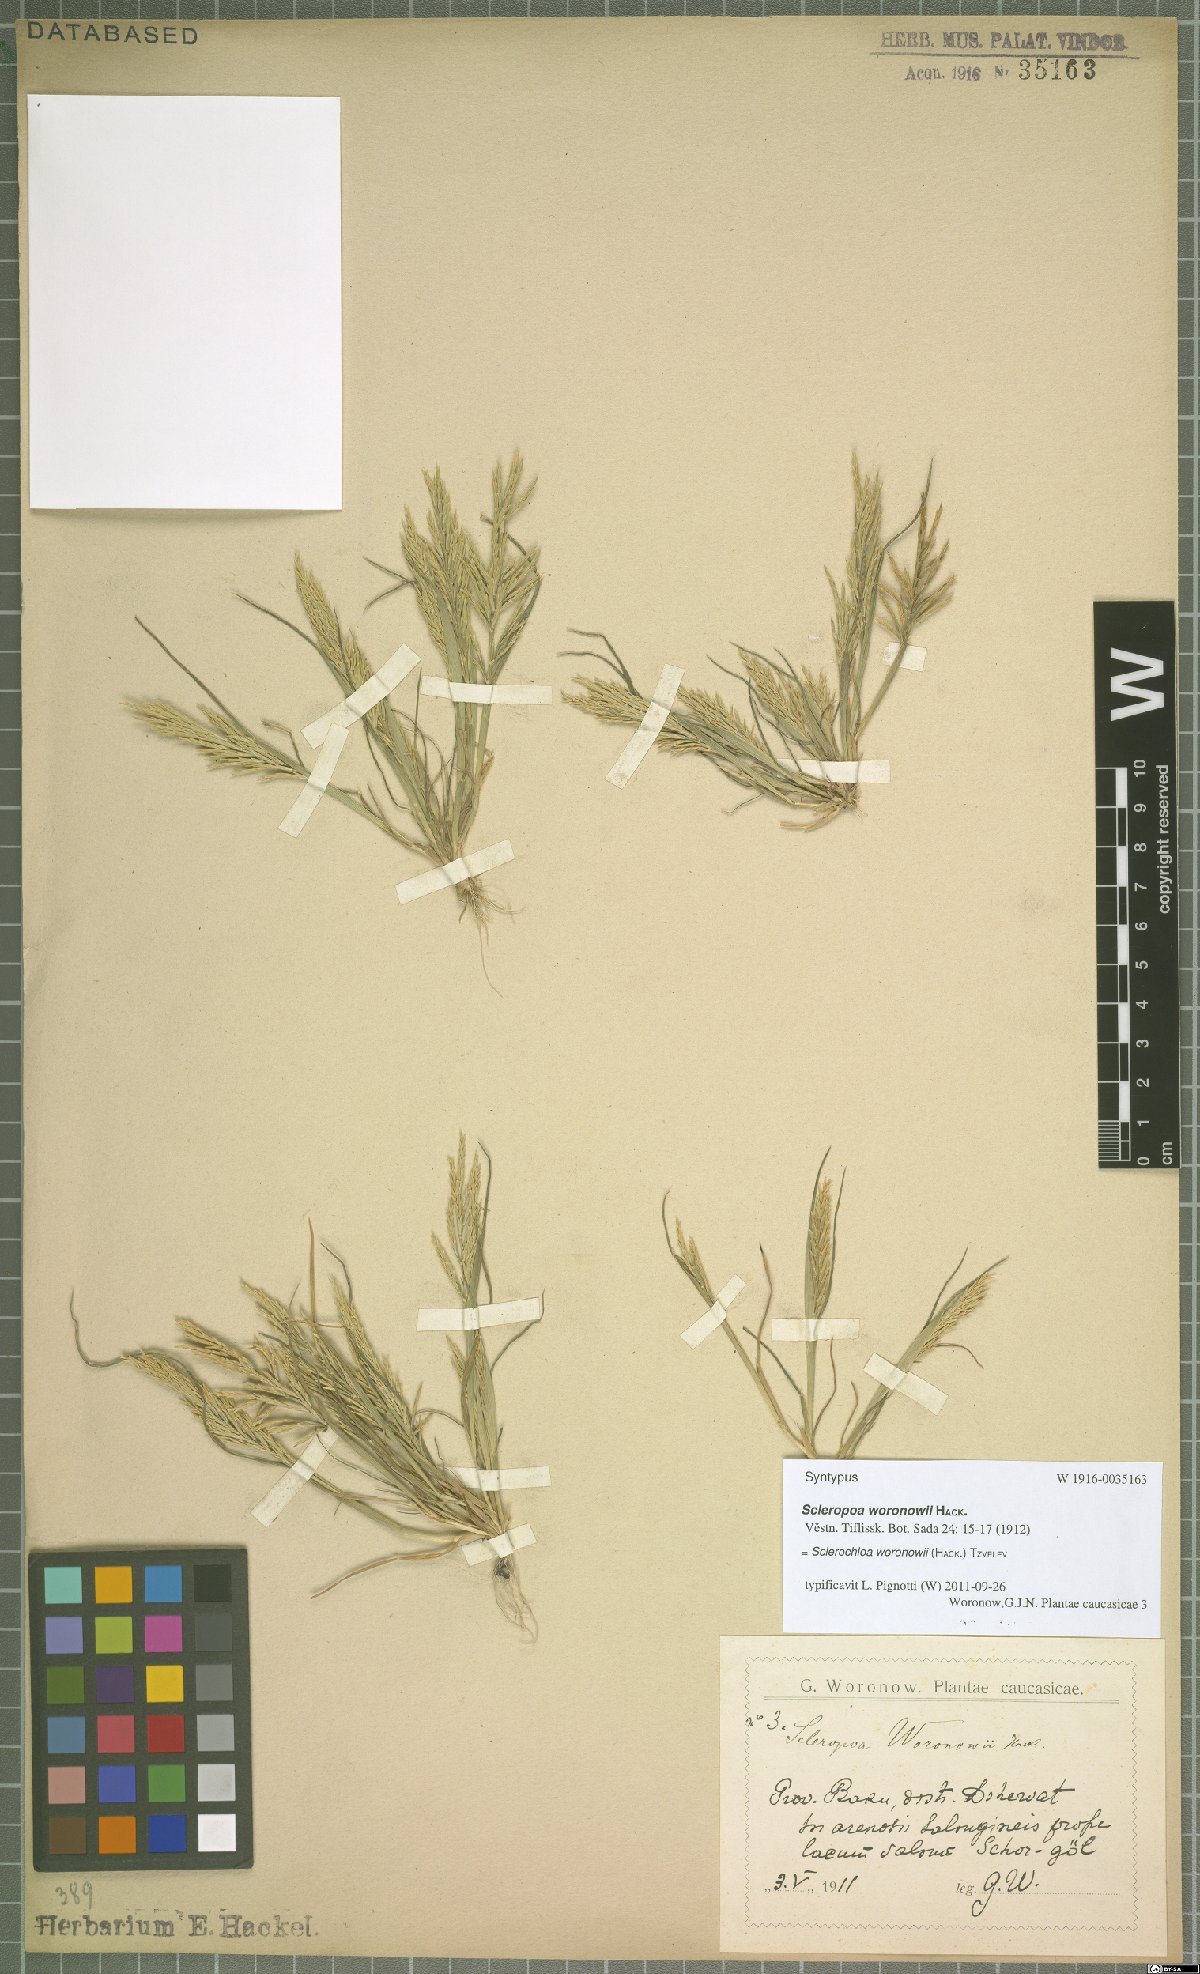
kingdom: Plantae
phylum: Tracheophyta
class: Liliopsida
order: Poales
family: Poaceae
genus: Sclerochloa
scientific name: Sclerochloa woronowii
